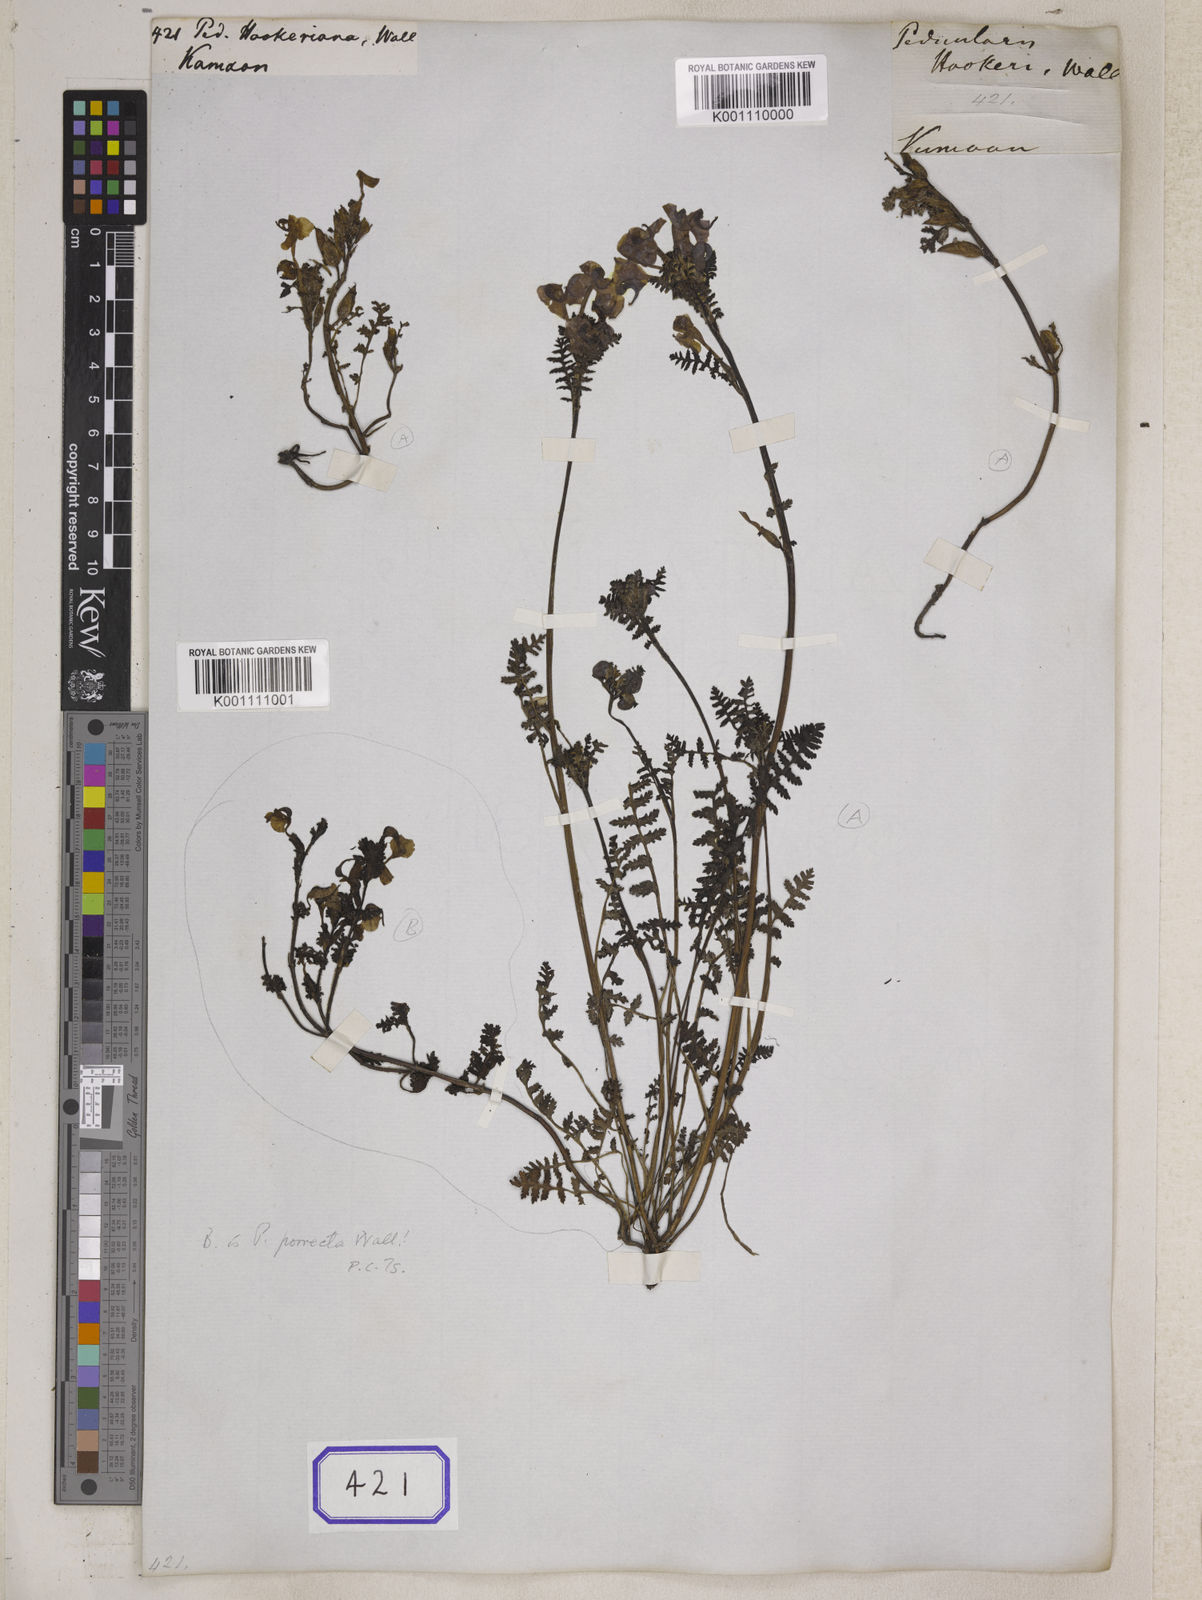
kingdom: Plantae
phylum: Tracheophyta
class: Magnoliopsida
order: Lamiales
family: Orobanchaceae
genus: Pedicularis
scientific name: Pedicularis
